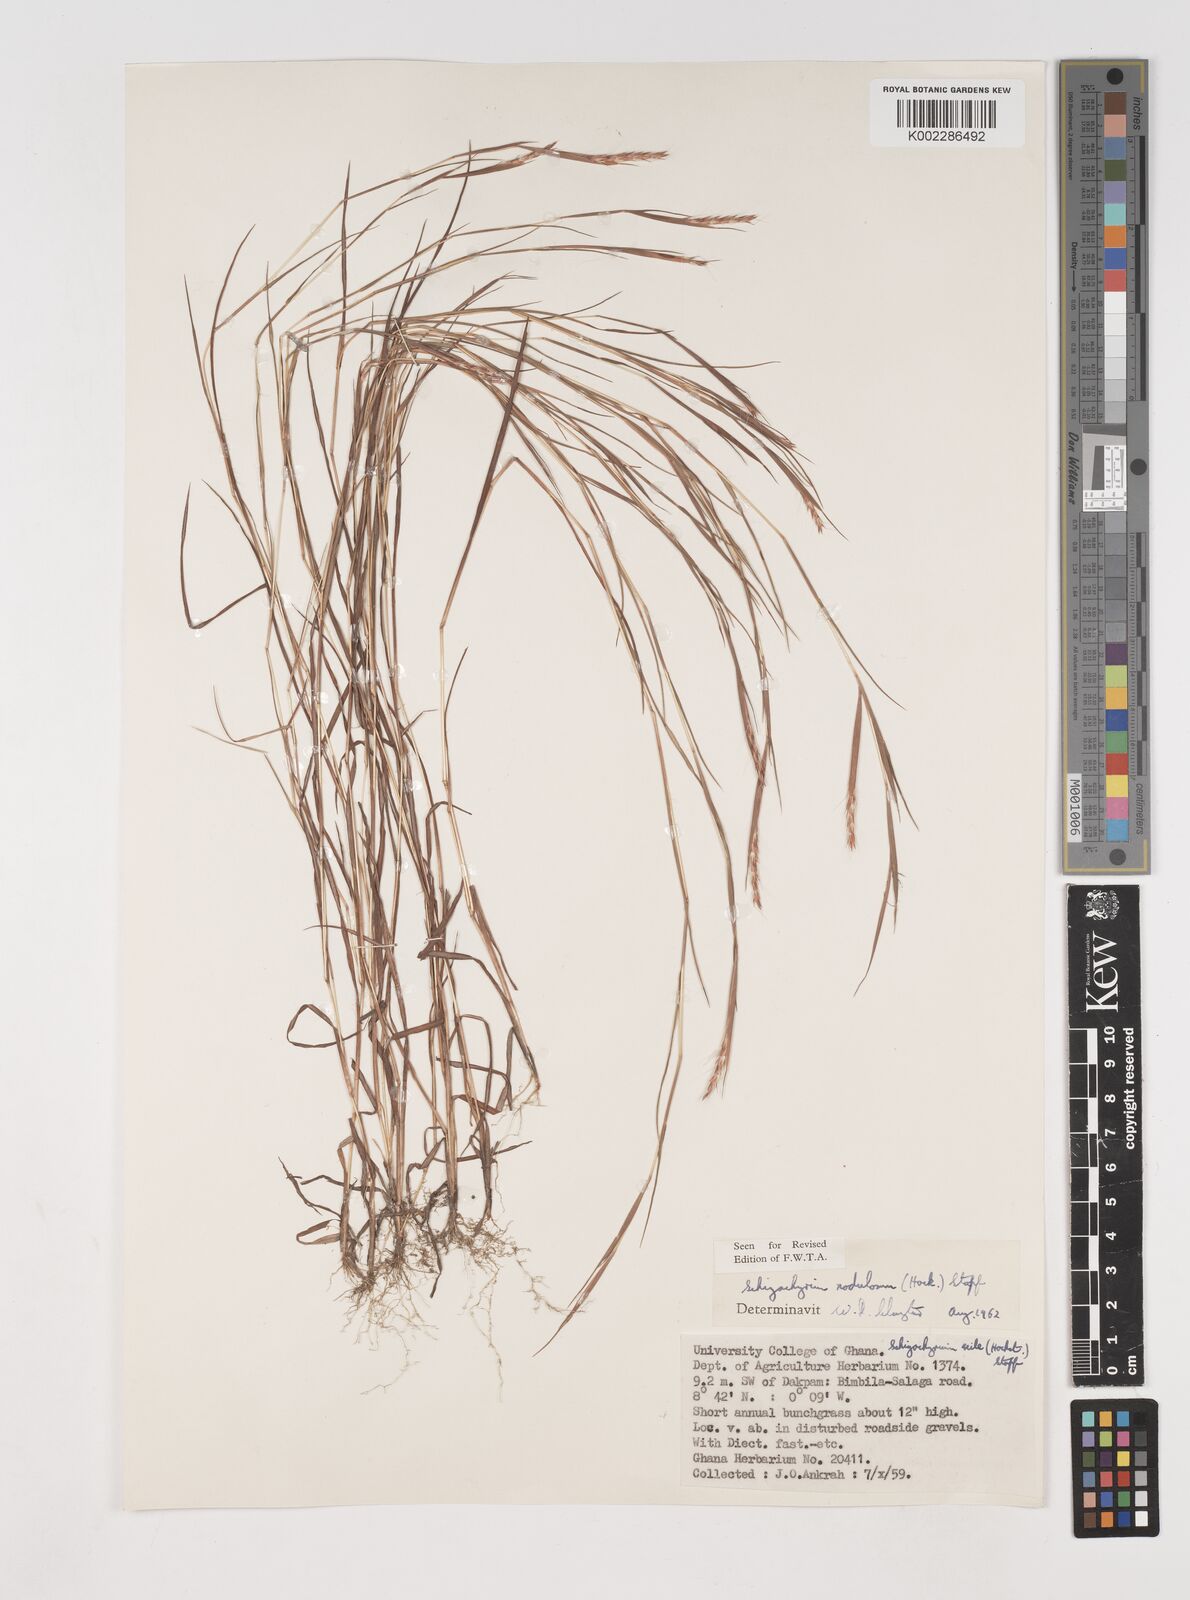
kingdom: Plantae
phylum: Tracheophyta
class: Liliopsida
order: Poales
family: Poaceae
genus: Schizachyrium
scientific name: Schizachyrium nodulosum
